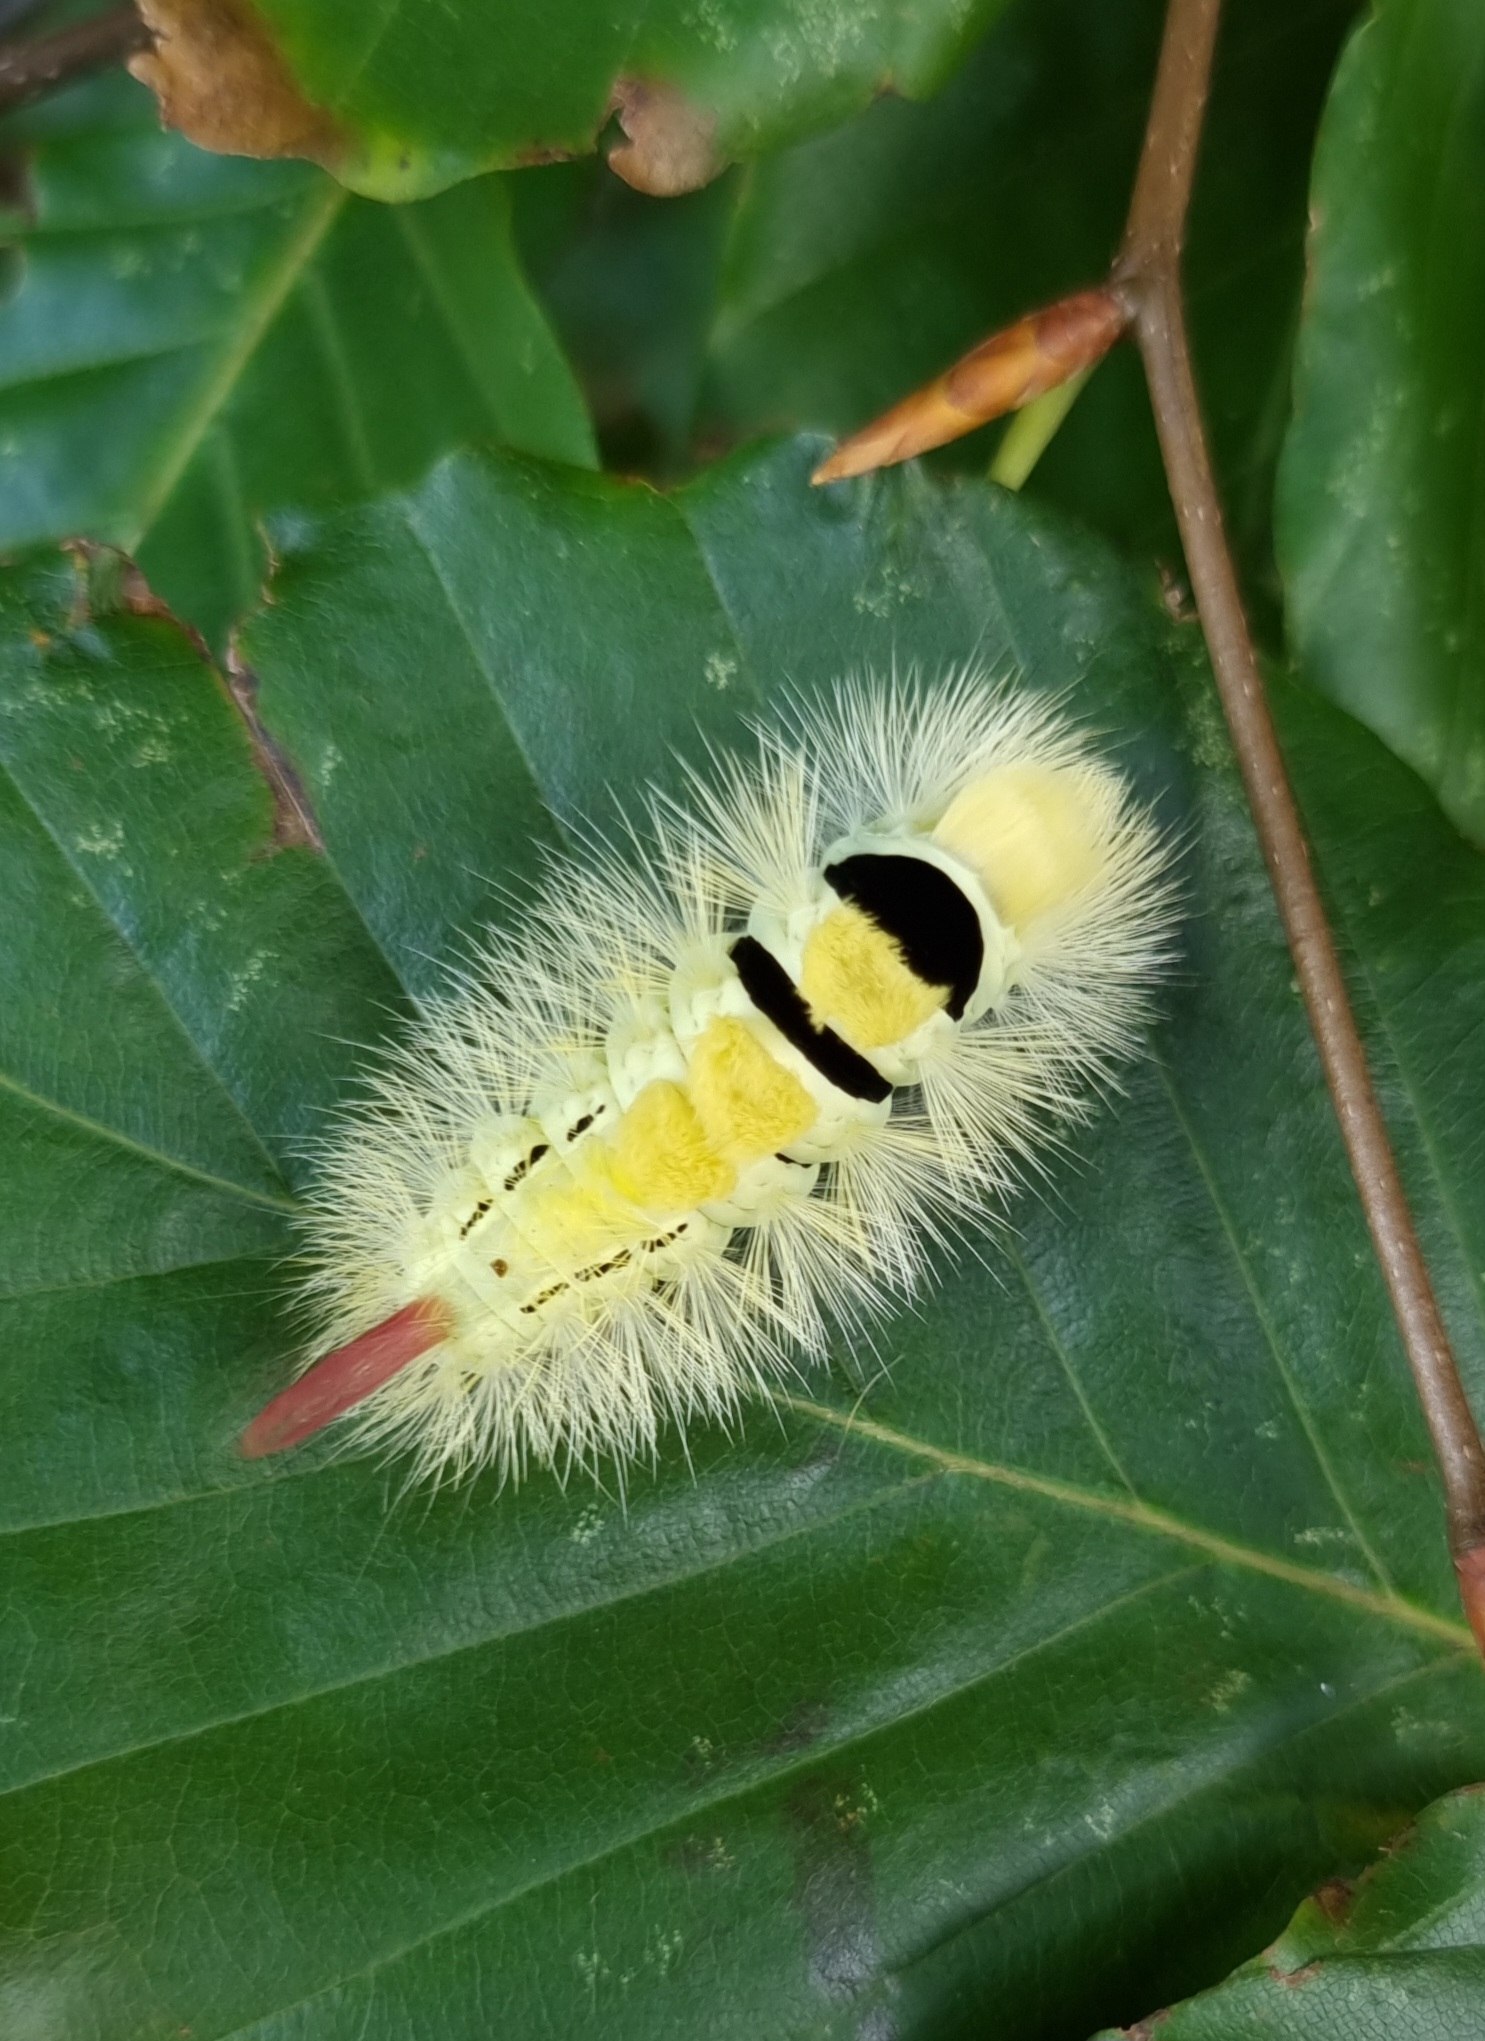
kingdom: Animalia
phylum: Arthropoda
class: Insecta
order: Lepidoptera
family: Erebidae
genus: Calliteara
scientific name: Calliteara pudibunda
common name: Bøgenonne
